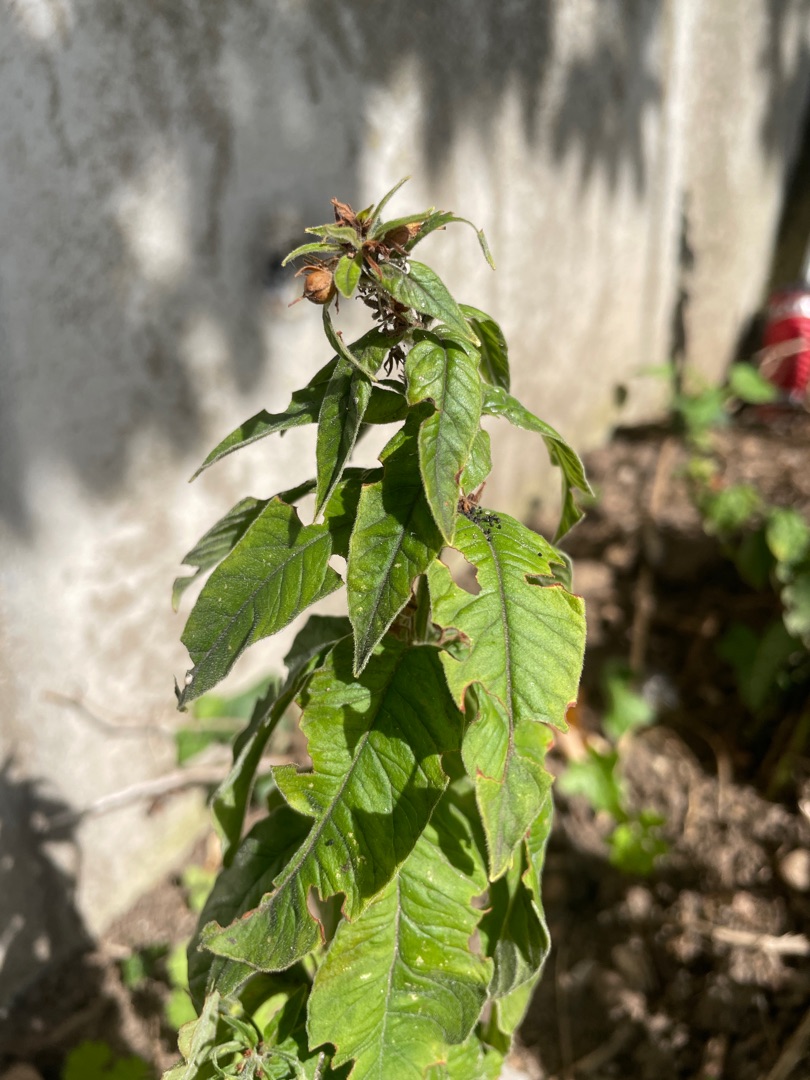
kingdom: Plantae
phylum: Tracheophyta
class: Magnoliopsida
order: Ericales
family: Primulaceae
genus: Lysimachia
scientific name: Lysimachia punctata
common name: Prikbladet fredløs
